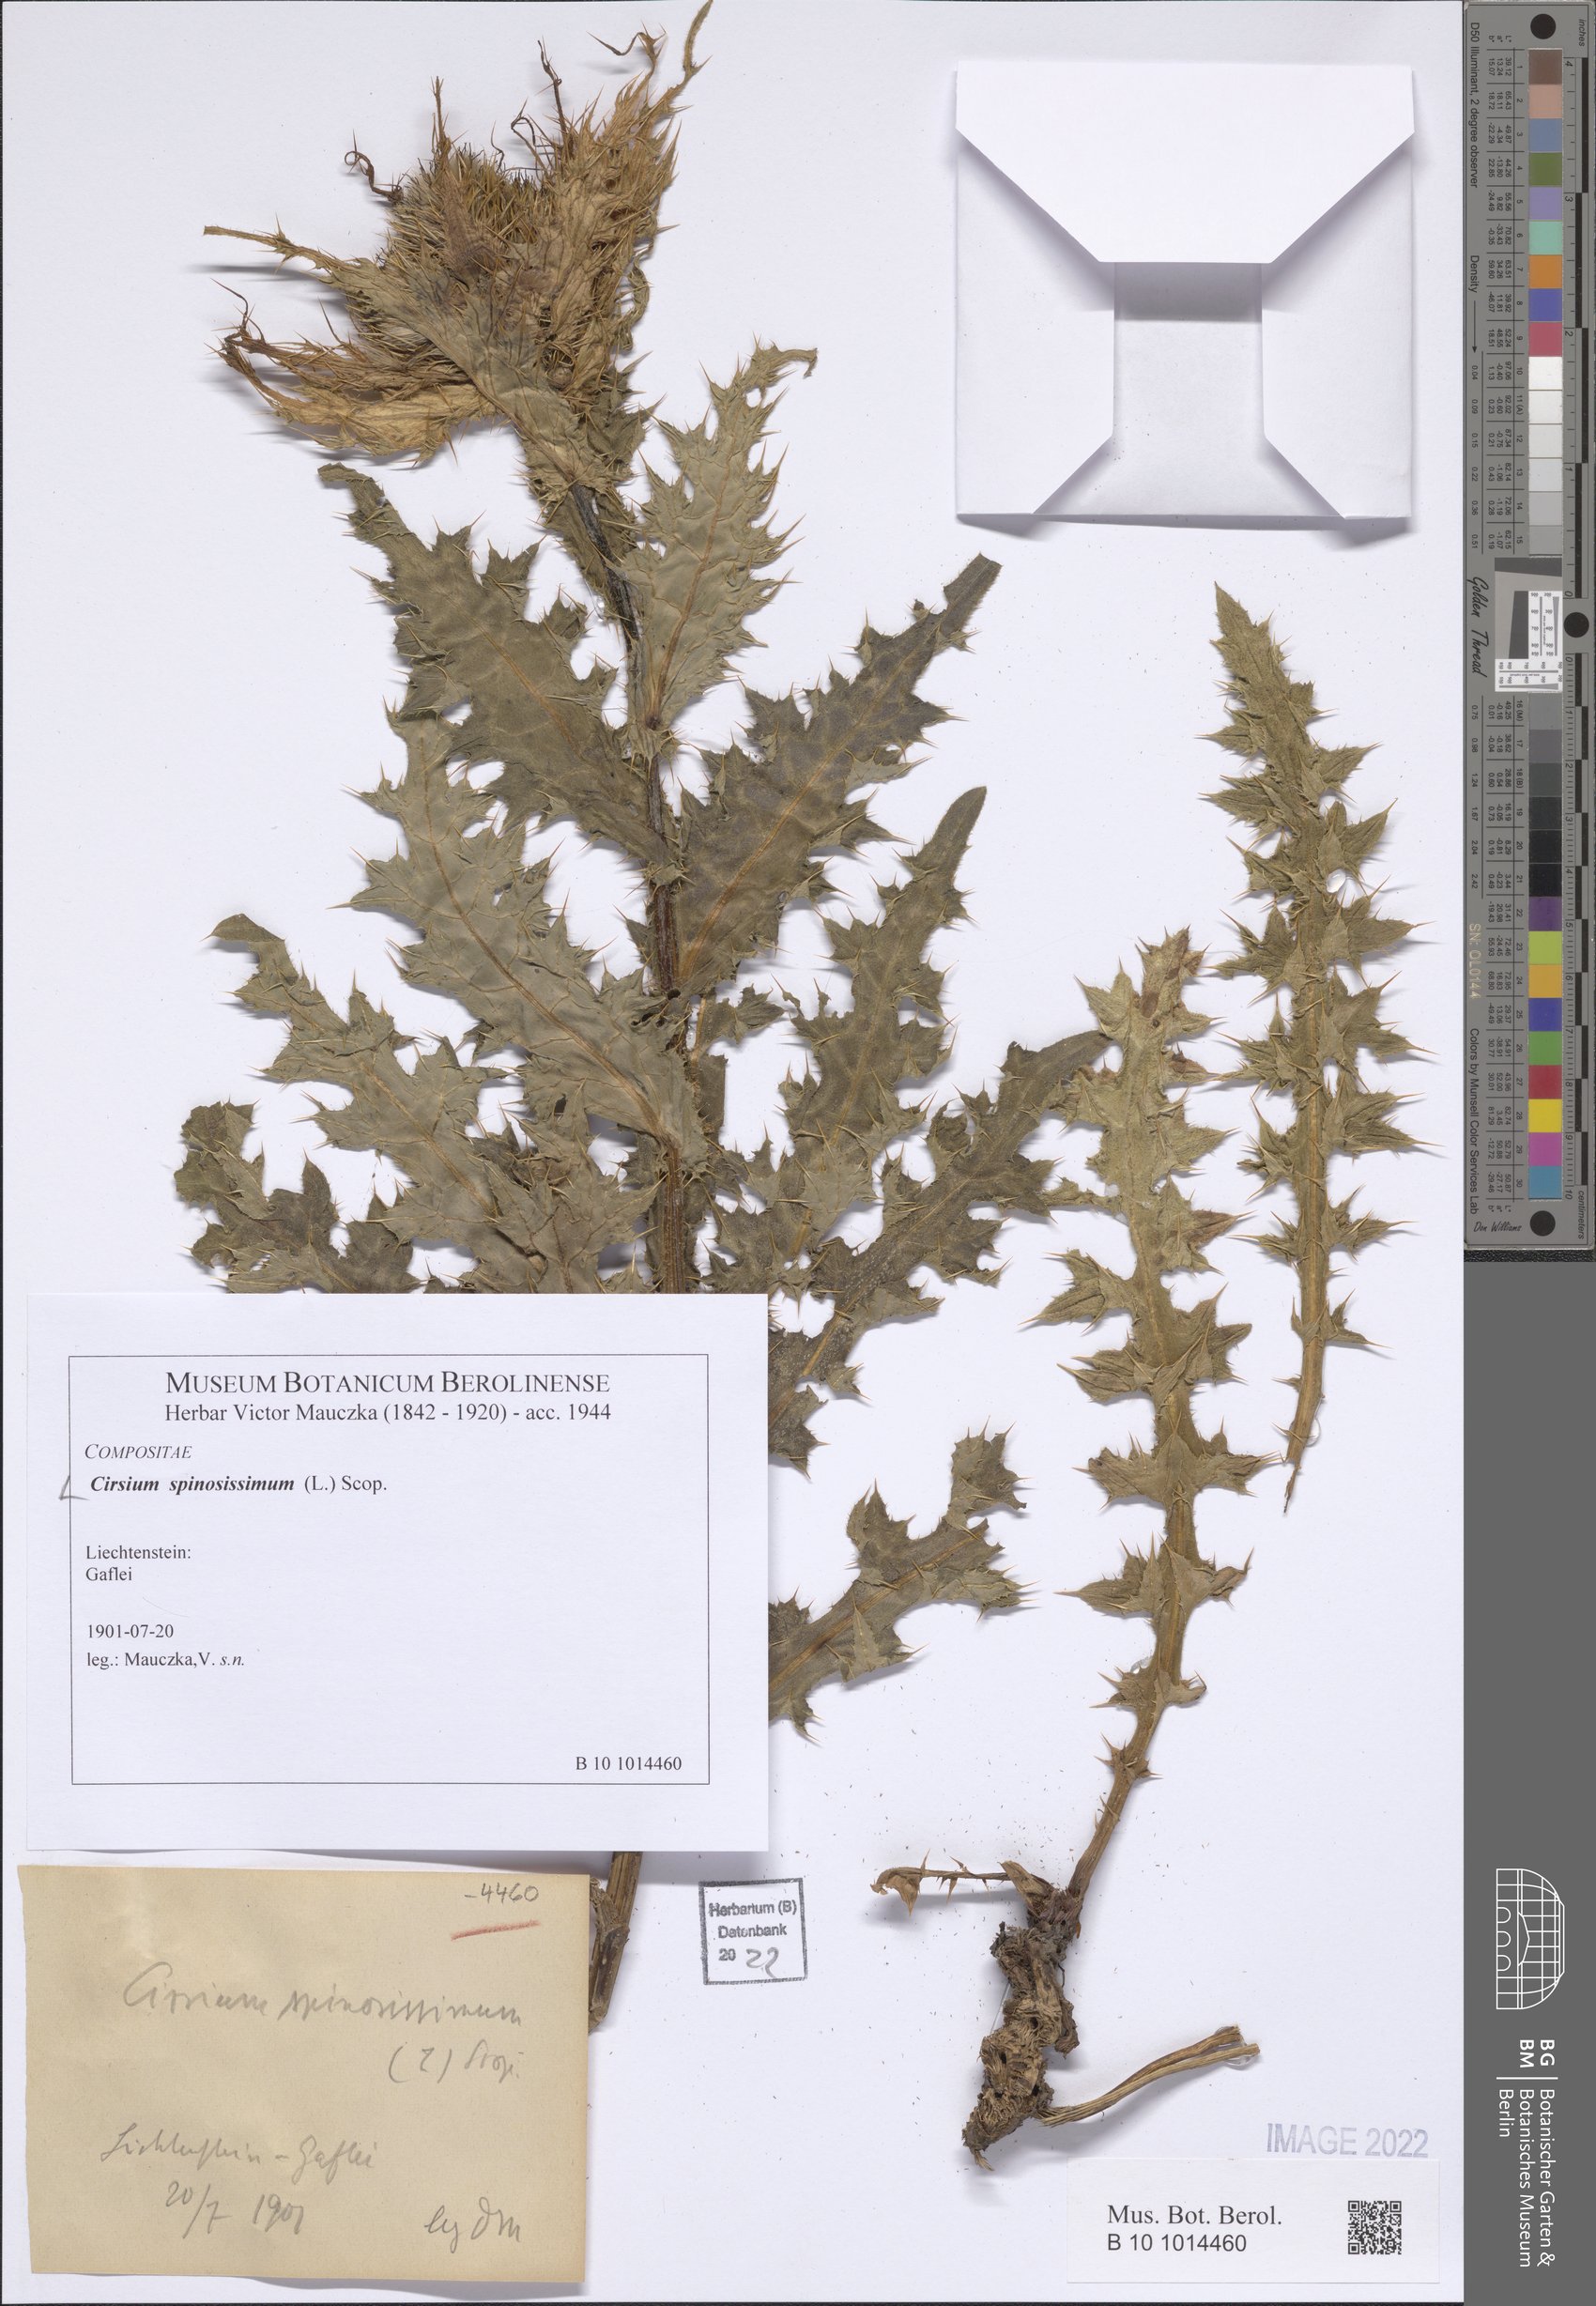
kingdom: Plantae
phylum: Tracheophyta
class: Magnoliopsida
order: Asterales
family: Asteraceae
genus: Cirsium
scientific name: Cirsium spinosissimum
